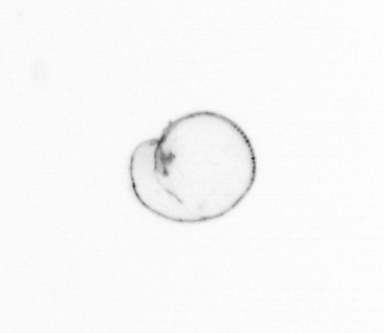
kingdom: Chromista
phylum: Myzozoa
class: Dinophyceae
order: Noctilucales
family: Noctilucaceae
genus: Noctiluca
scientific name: Noctiluca scintillans
